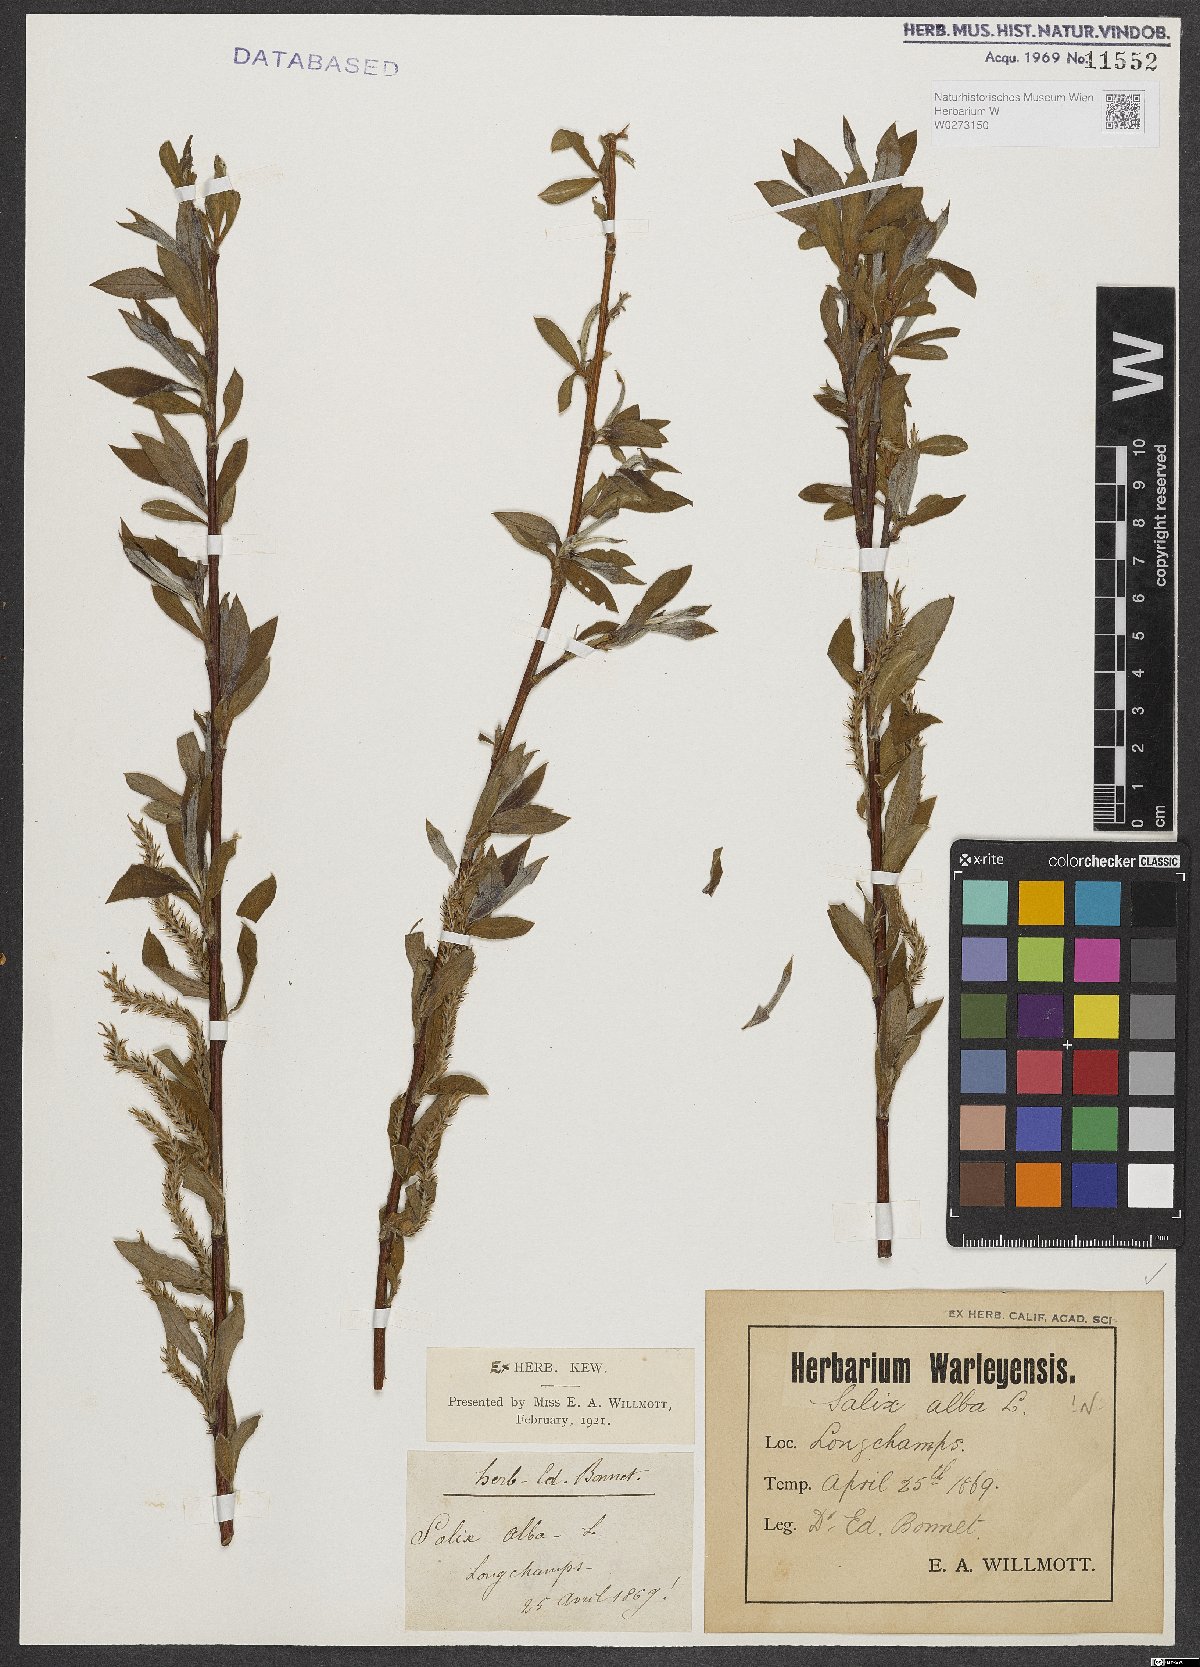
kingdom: Plantae
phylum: Tracheophyta
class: Magnoliopsida
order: Malpighiales
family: Salicaceae
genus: Salix
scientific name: Salix alba
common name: White willow
